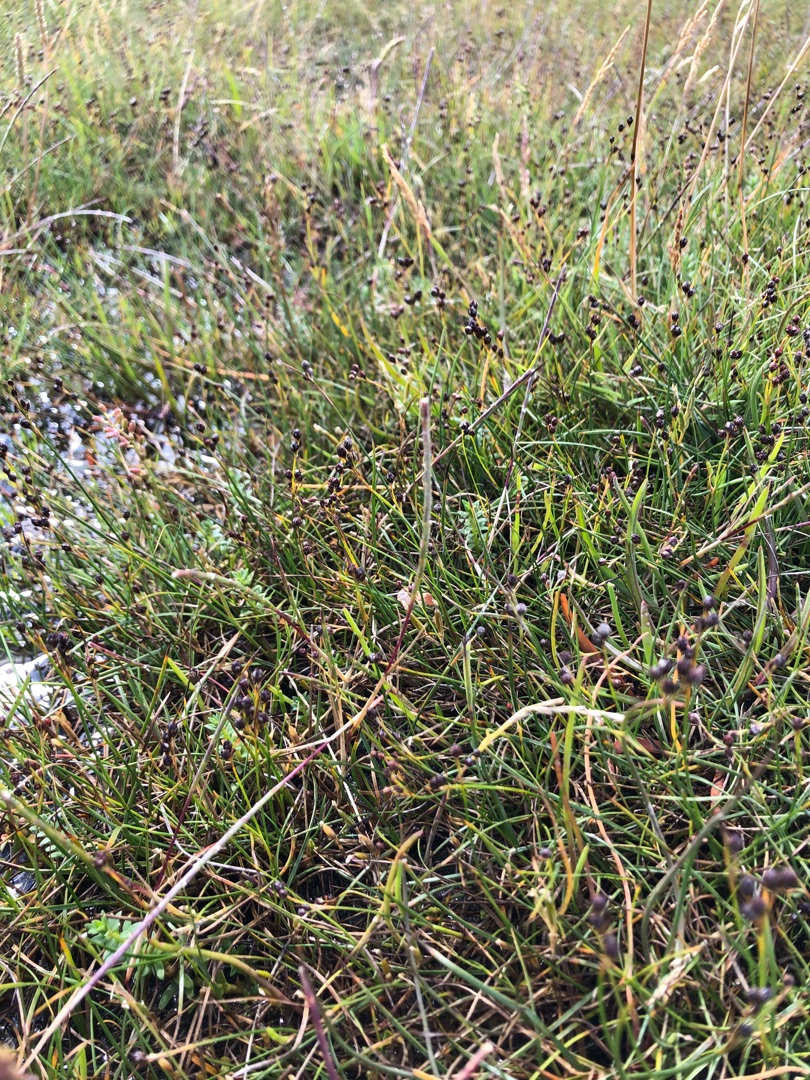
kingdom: Plantae
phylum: Tracheophyta
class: Liliopsida
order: Poales
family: Poaceae
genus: Parapholis
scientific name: Parapholis strigosa
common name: Spidshale
